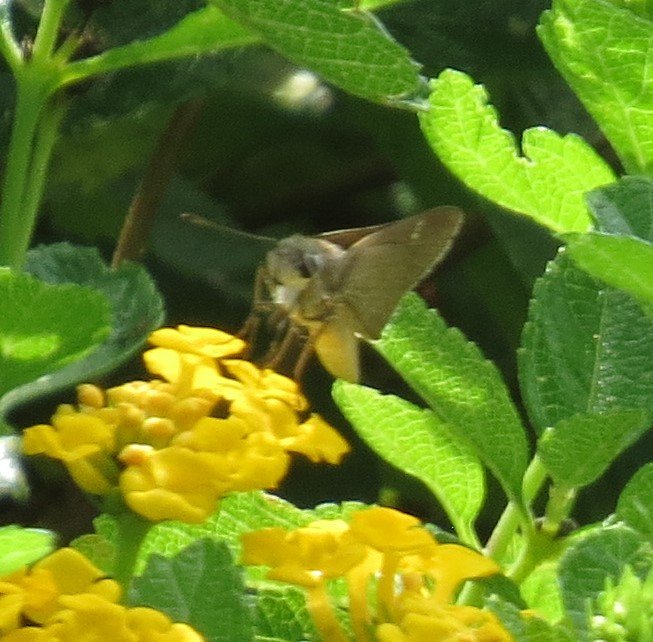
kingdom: Animalia
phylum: Arthropoda
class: Insecta
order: Lepidoptera
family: Hesperiidae
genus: Lerodea
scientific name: Lerodea eufala
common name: Eufala Skipper
